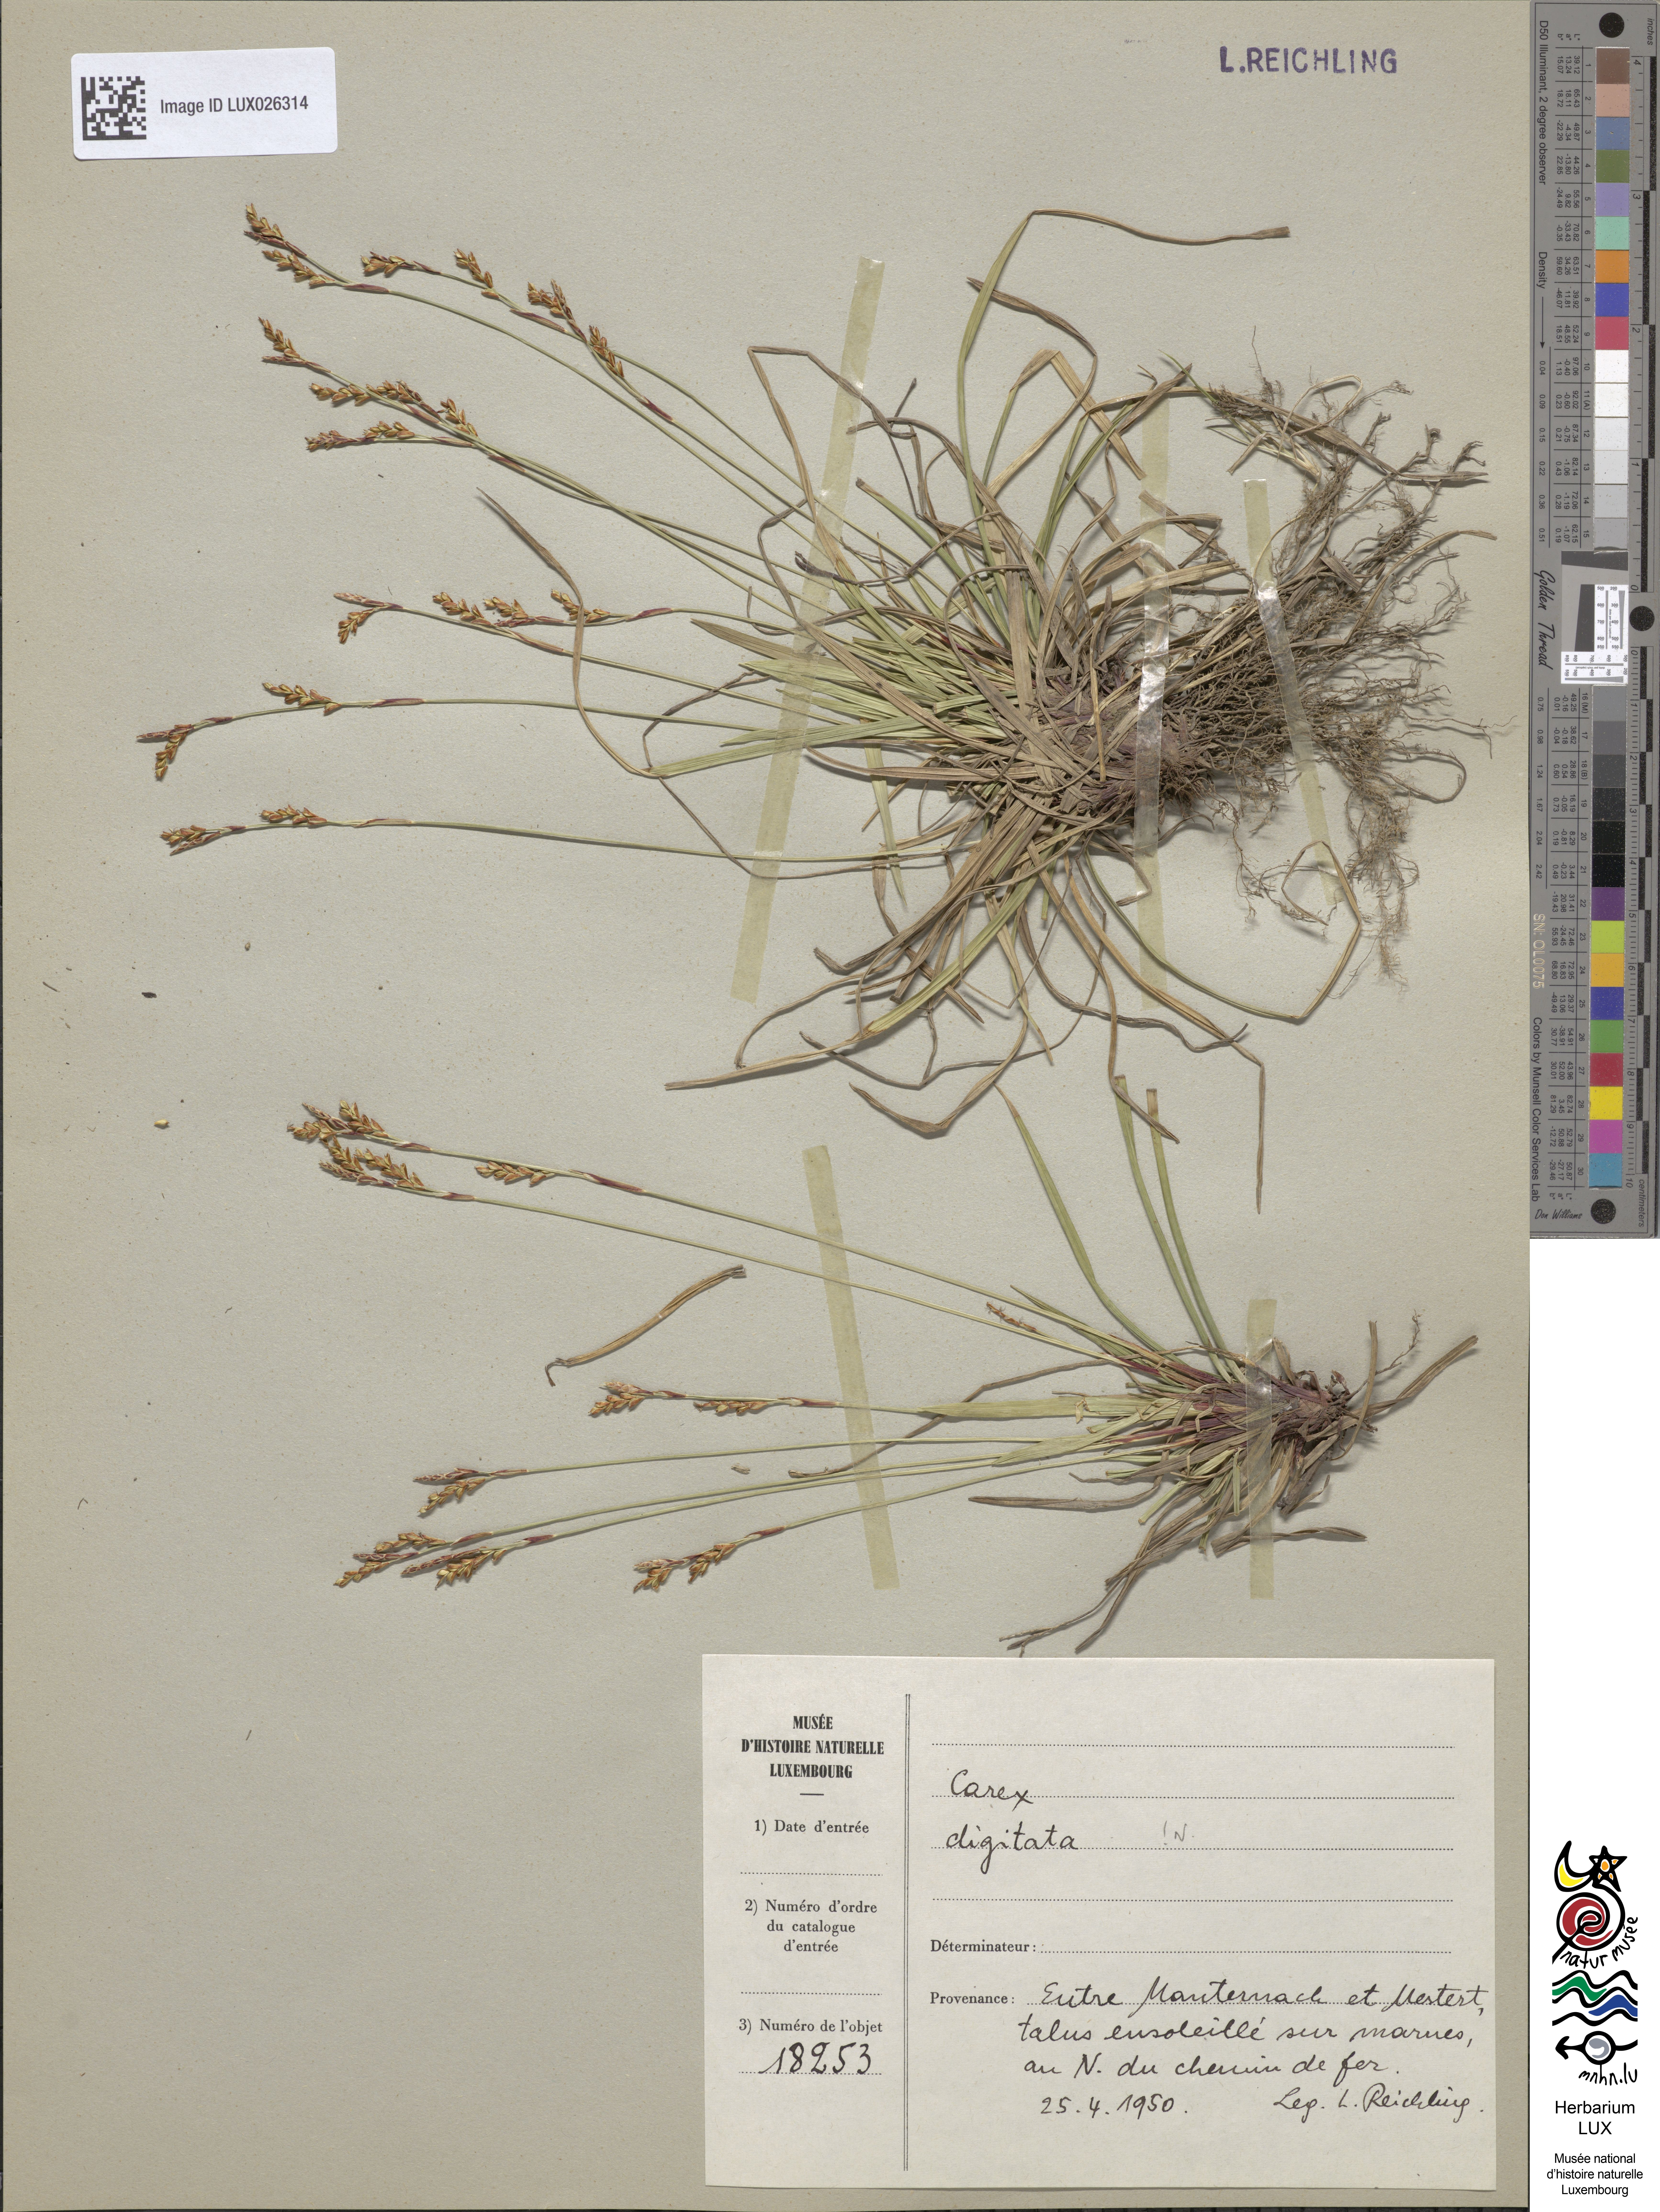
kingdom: Plantae
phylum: Tracheophyta
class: Liliopsida
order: Poales
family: Cyperaceae
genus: Carex
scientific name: Carex digitata
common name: Fingered sedge
